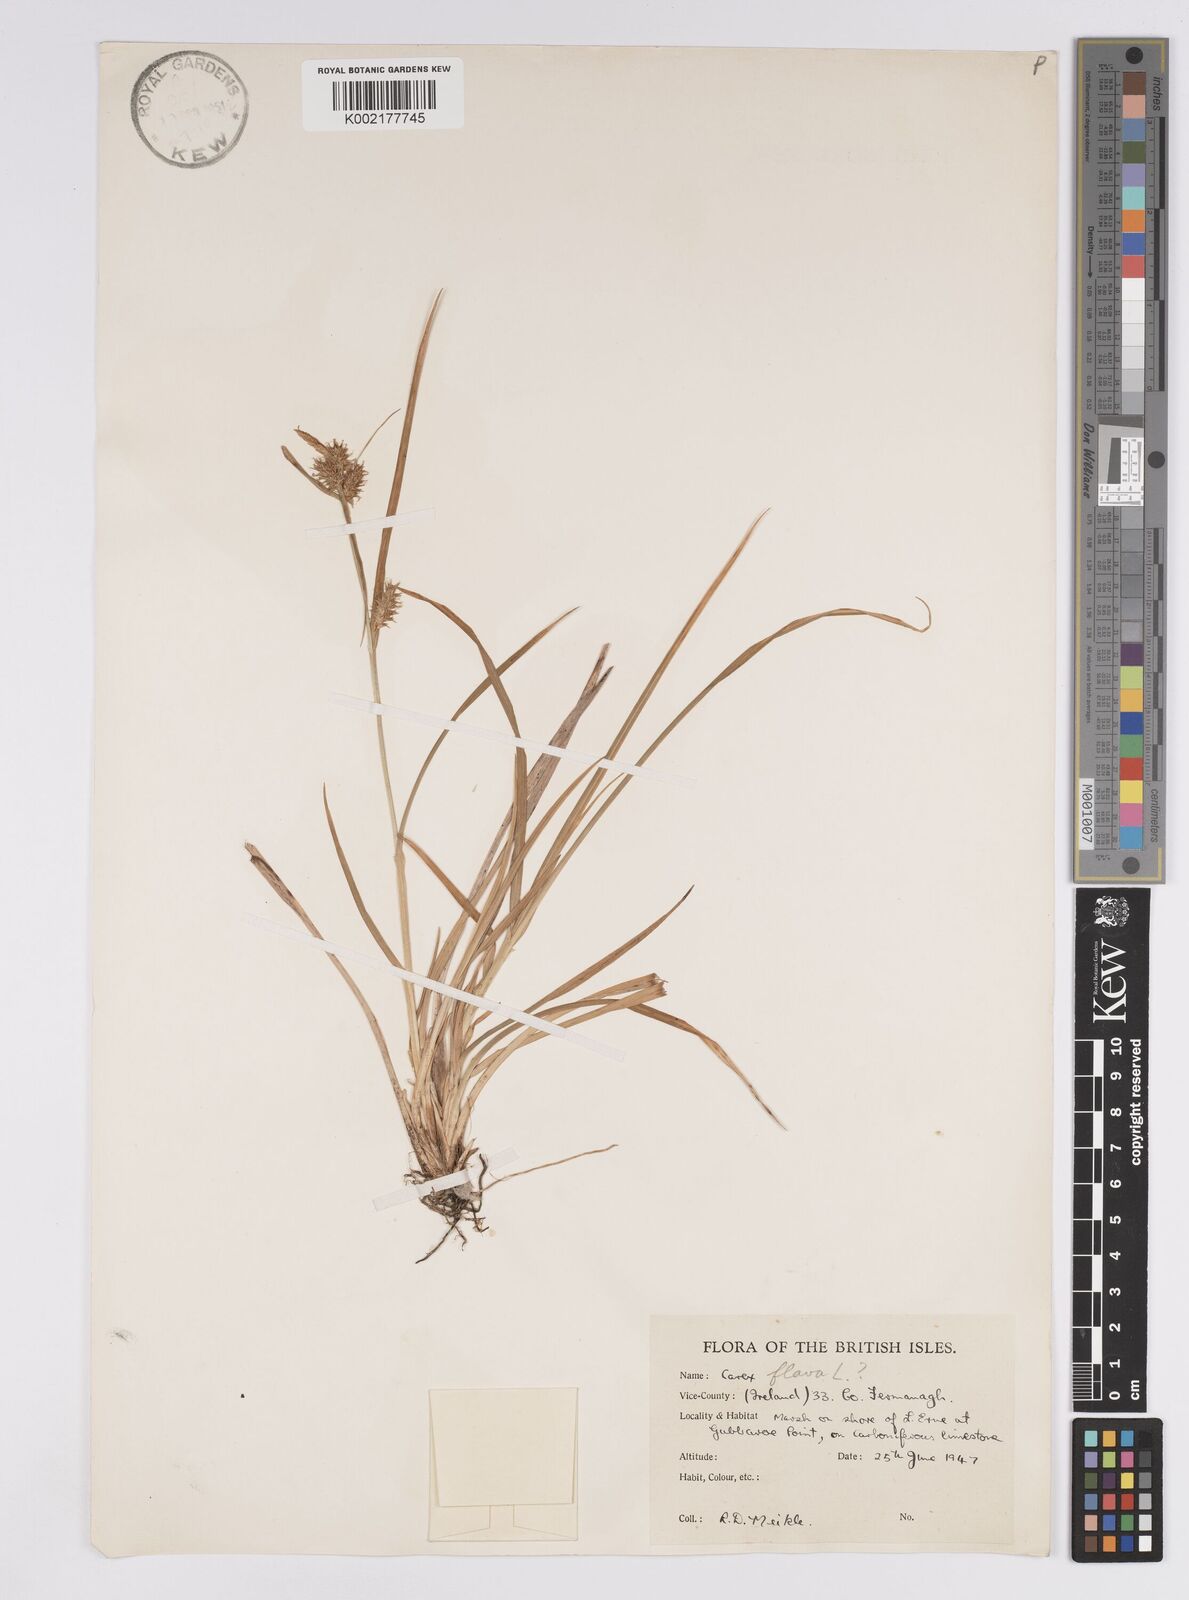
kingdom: Plantae
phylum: Tracheophyta
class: Liliopsida
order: Poales
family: Cyperaceae
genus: Carex
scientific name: Carex flava
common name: Large yellow-sedge
